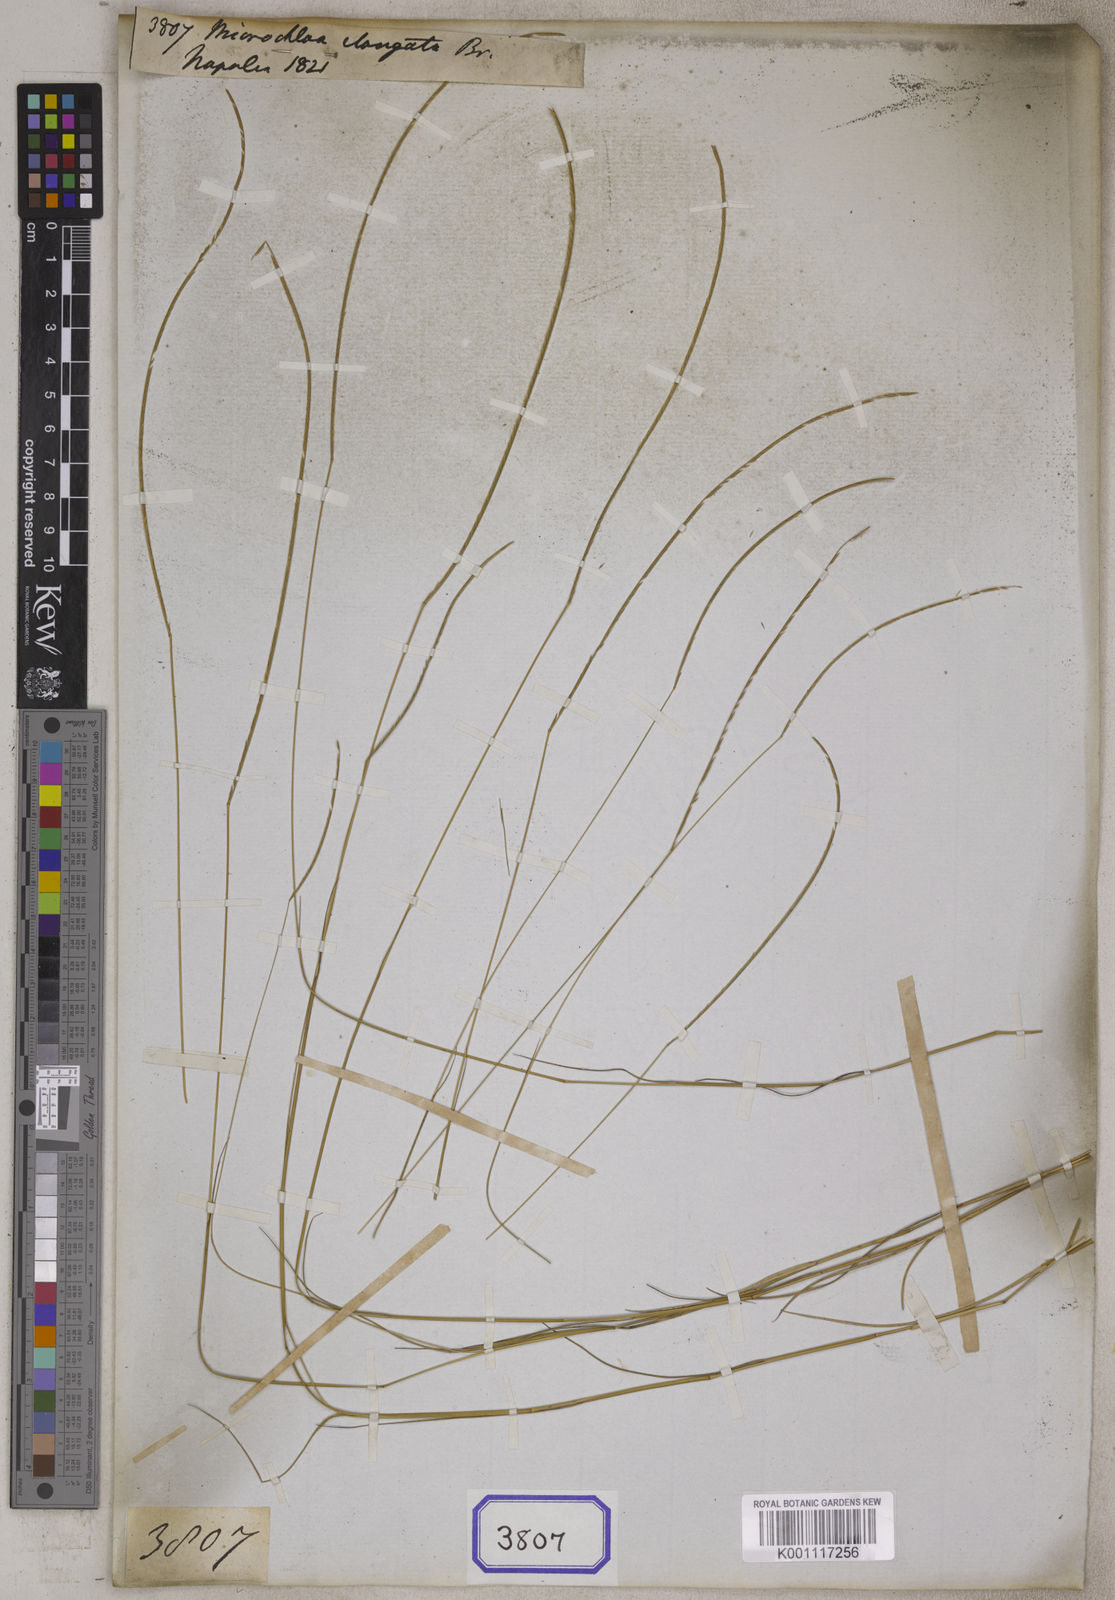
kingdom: Plantae
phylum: Tracheophyta
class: Liliopsida
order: Poales
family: Poaceae
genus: Microchloa
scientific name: Microchloa
